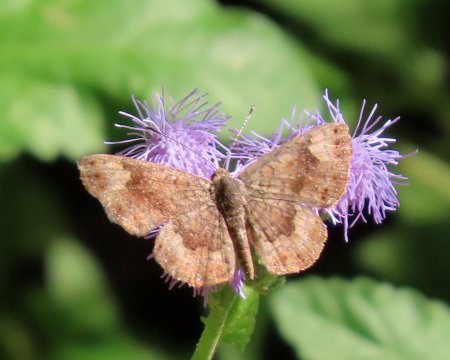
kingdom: Animalia
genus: Calephelis
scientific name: Calephelis nemesis
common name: Fatal Metalmark
